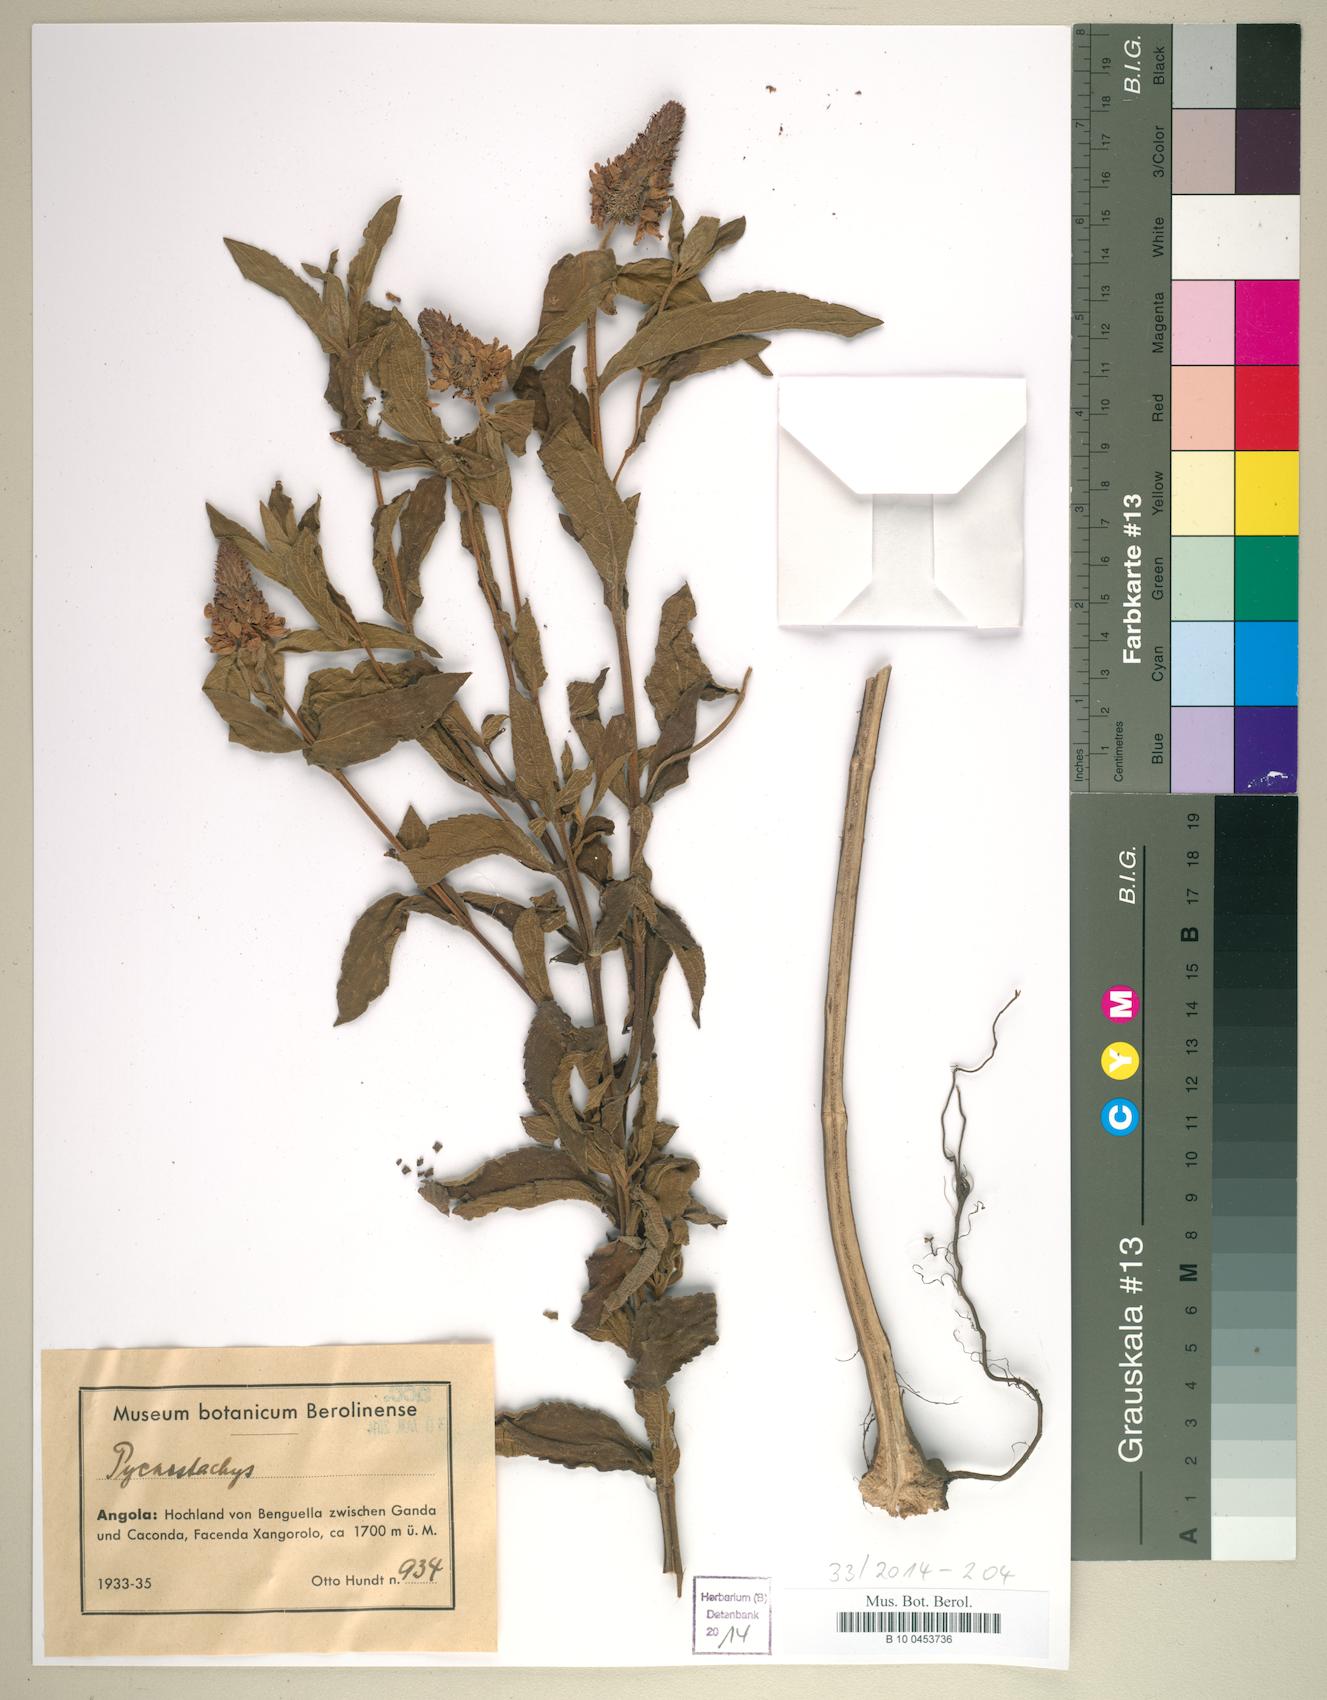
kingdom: Plantae
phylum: Tracheophyta
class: Magnoliopsida
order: Lamiales
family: Lamiaceae
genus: Coleus
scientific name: Coleus
